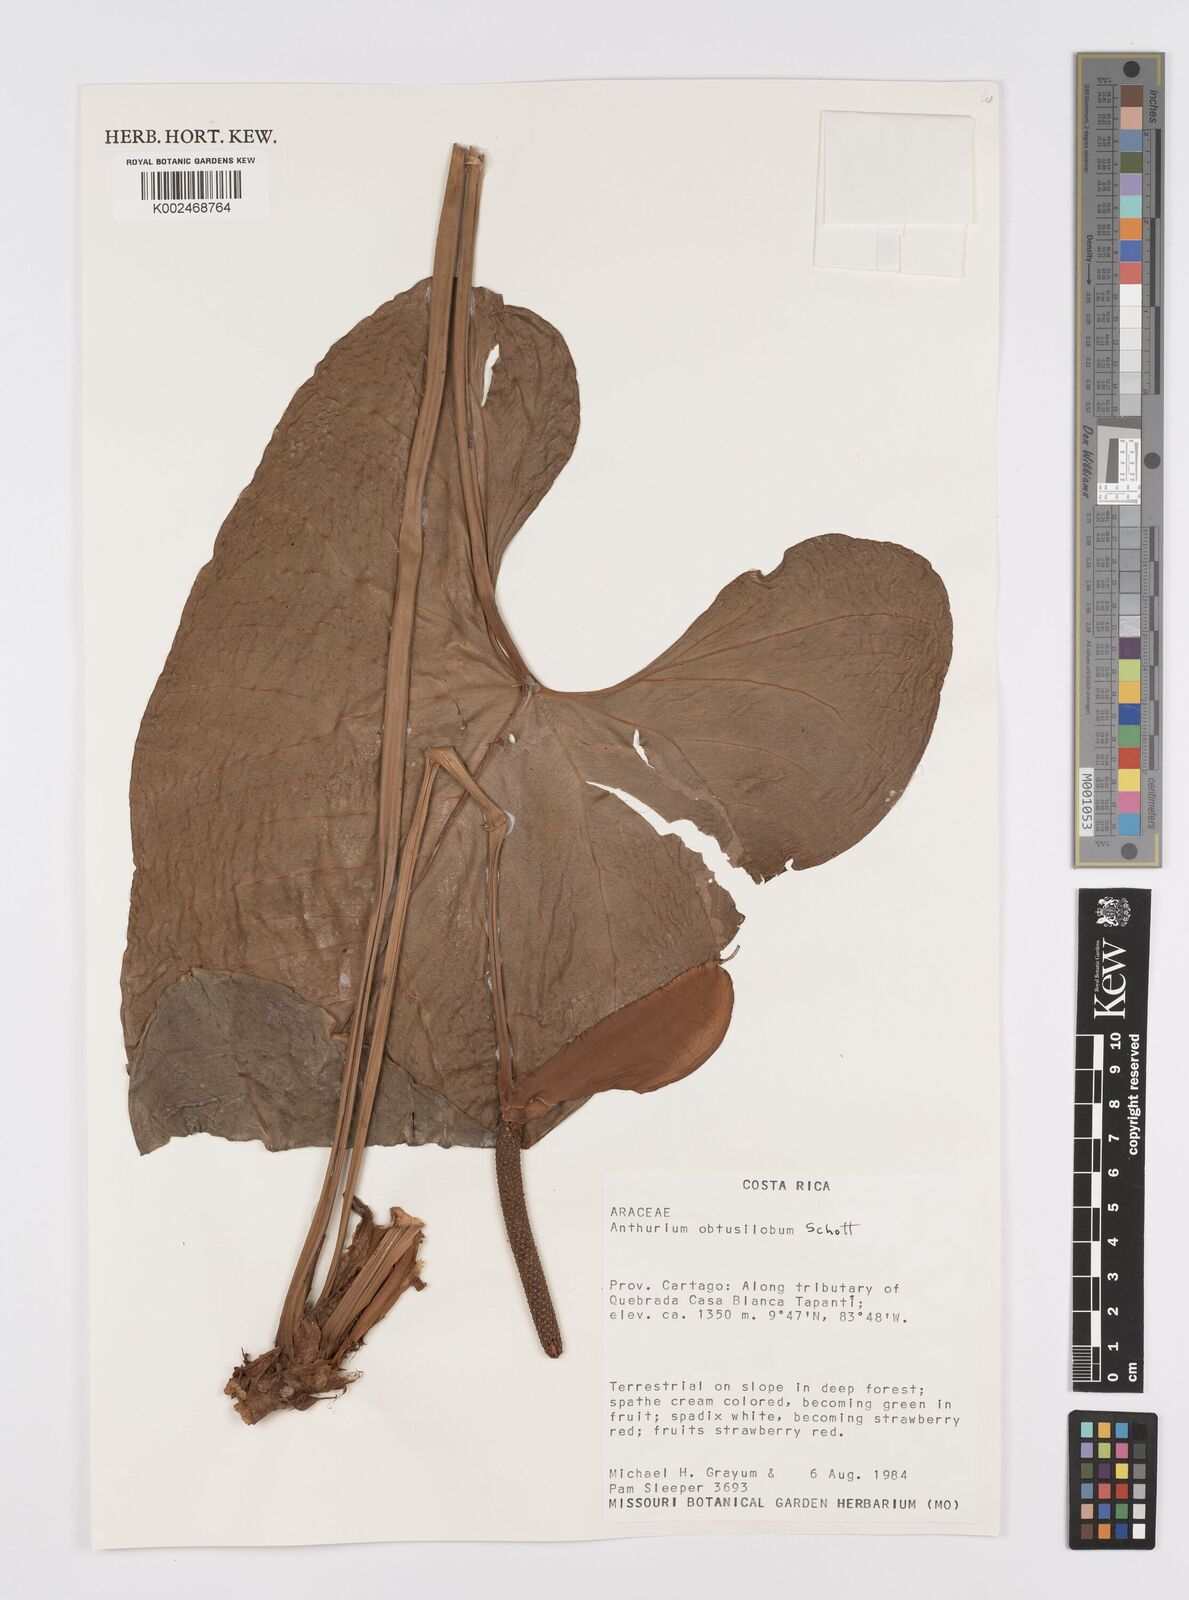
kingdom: Plantae
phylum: Tracheophyta
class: Liliopsida
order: Alismatales
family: Araceae
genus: Anthurium
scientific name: Anthurium obtusilobum
